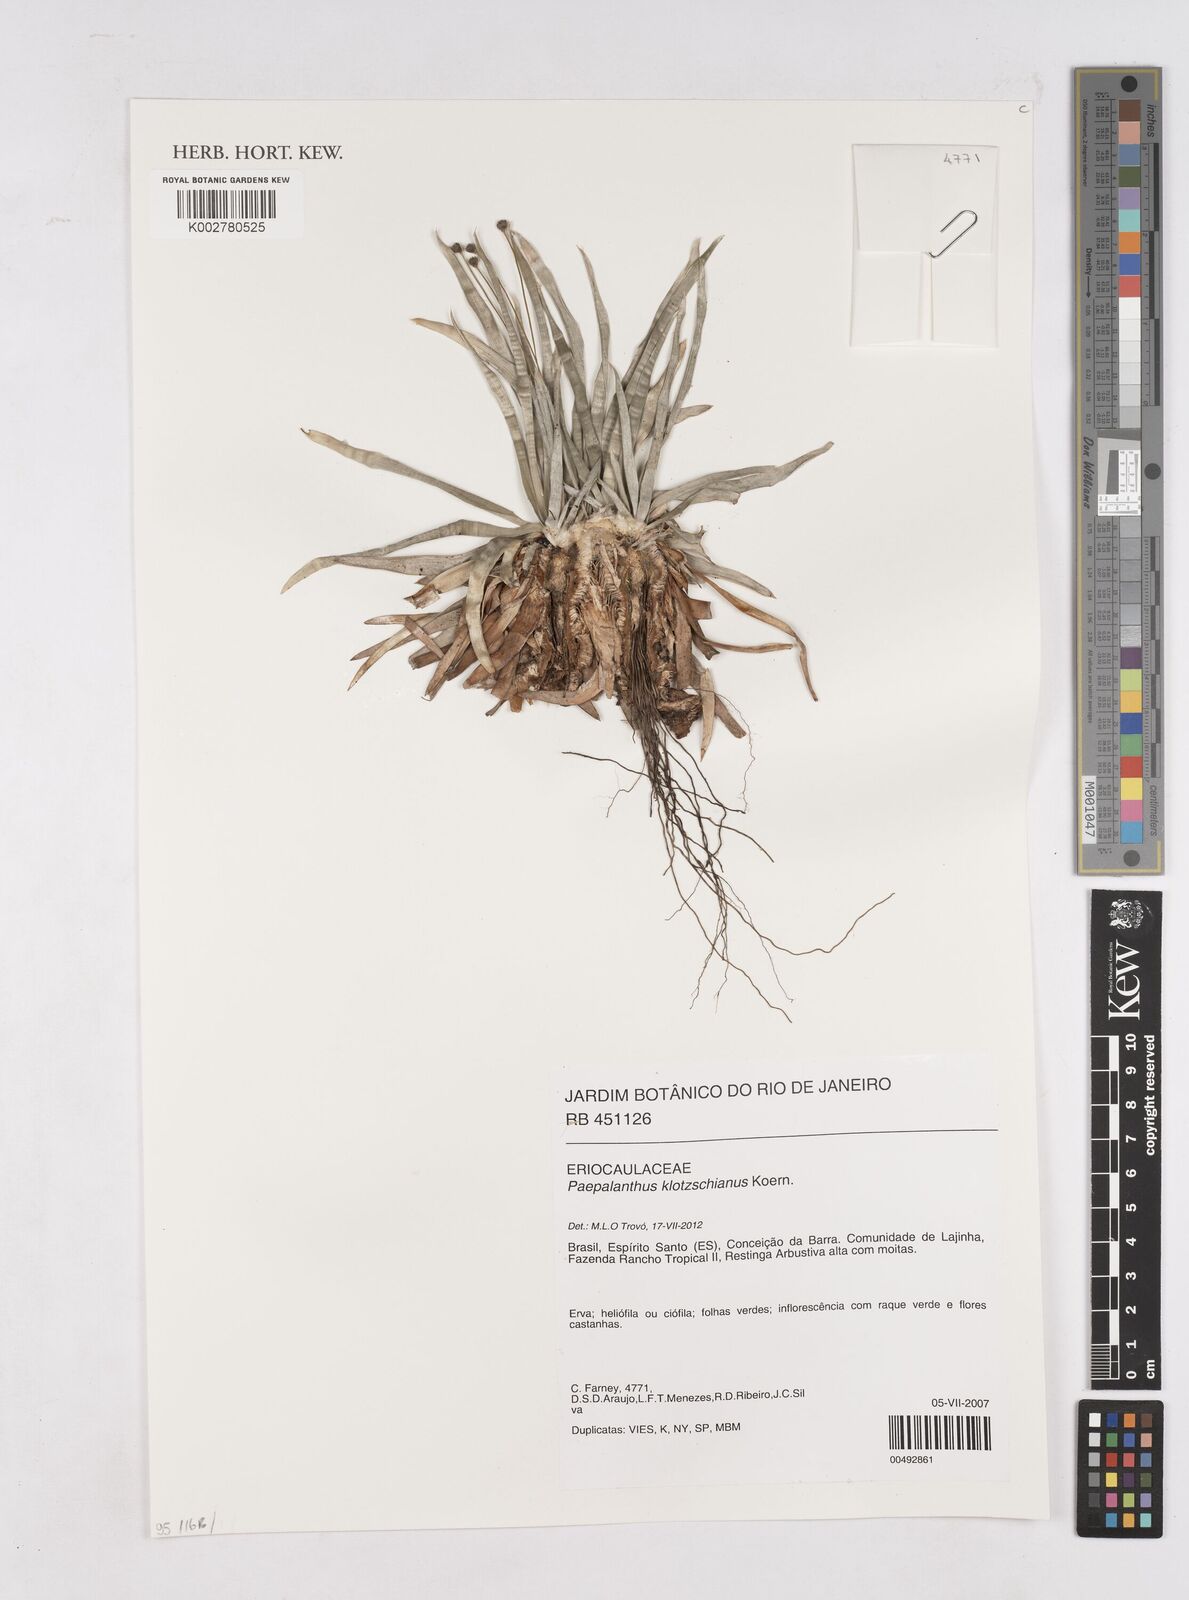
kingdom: Plantae
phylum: Tracheophyta
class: Liliopsida
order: Poales
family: Eriocaulaceae
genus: Paepalanthus
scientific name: Paepalanthus klotzschianus
